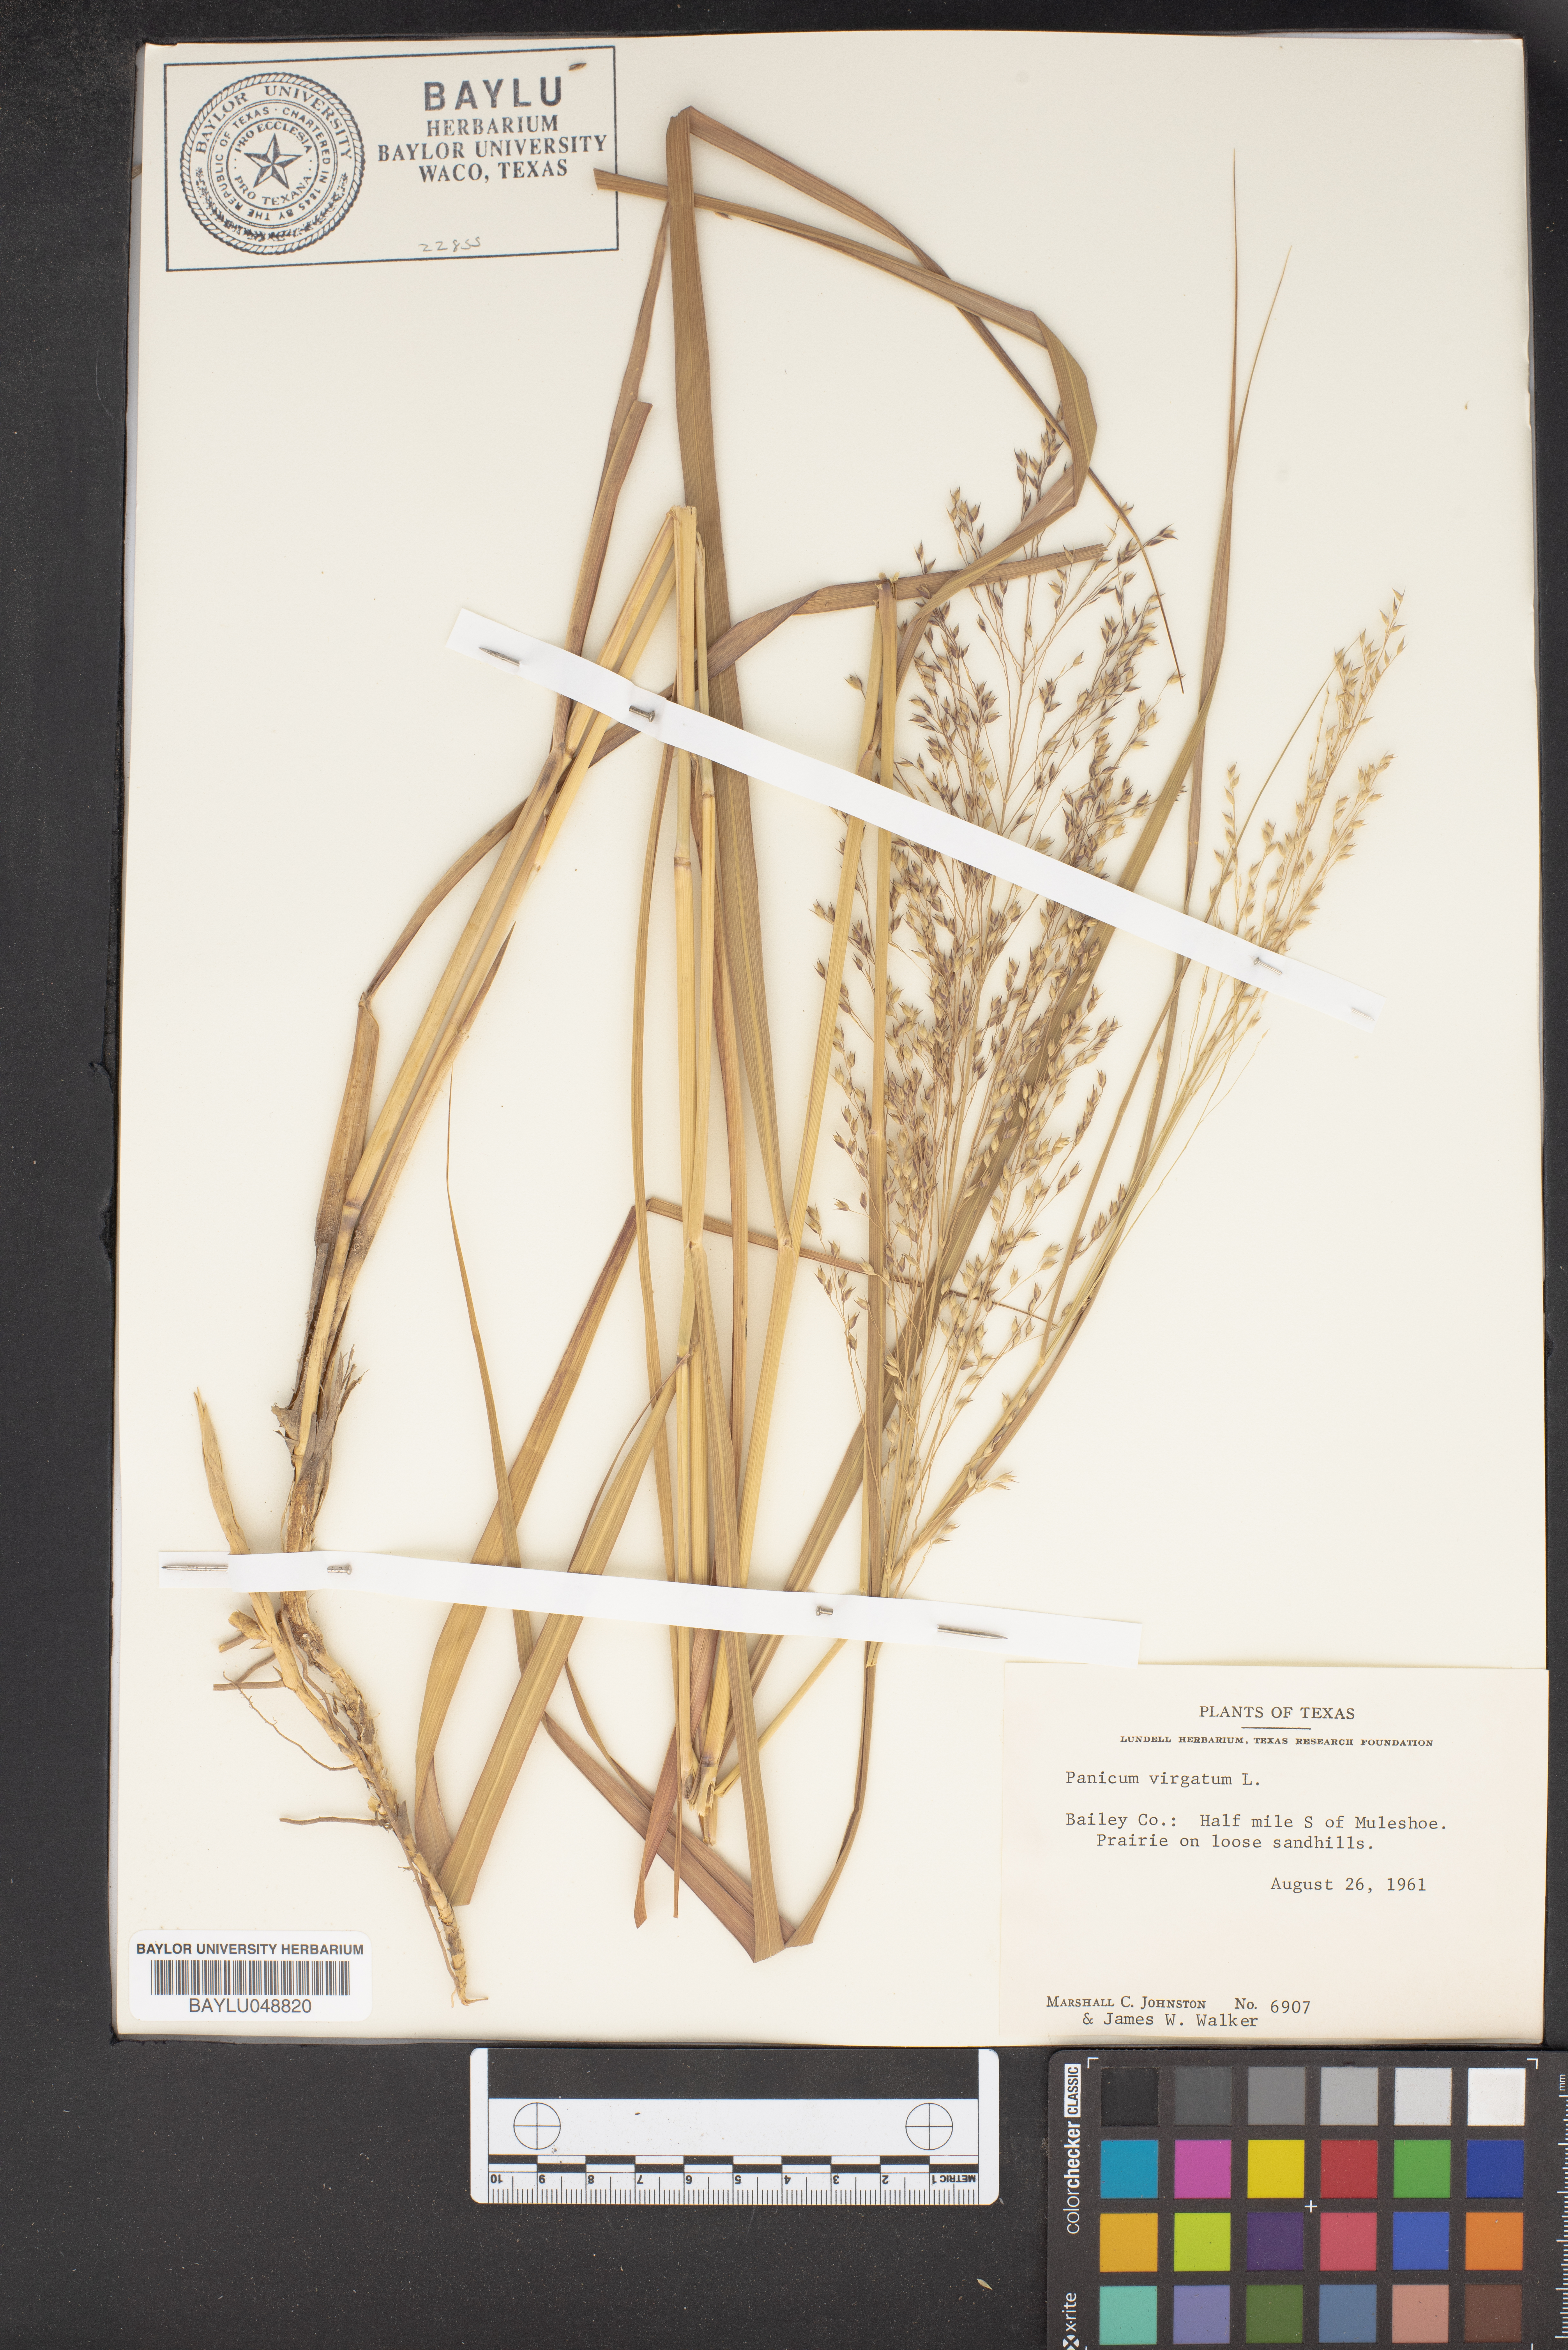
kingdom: Plantae
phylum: Tracheophyta
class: Liliopsida
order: Poales
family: Poaceae
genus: Panicum
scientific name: Panicum virgatum
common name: Switchgrass
